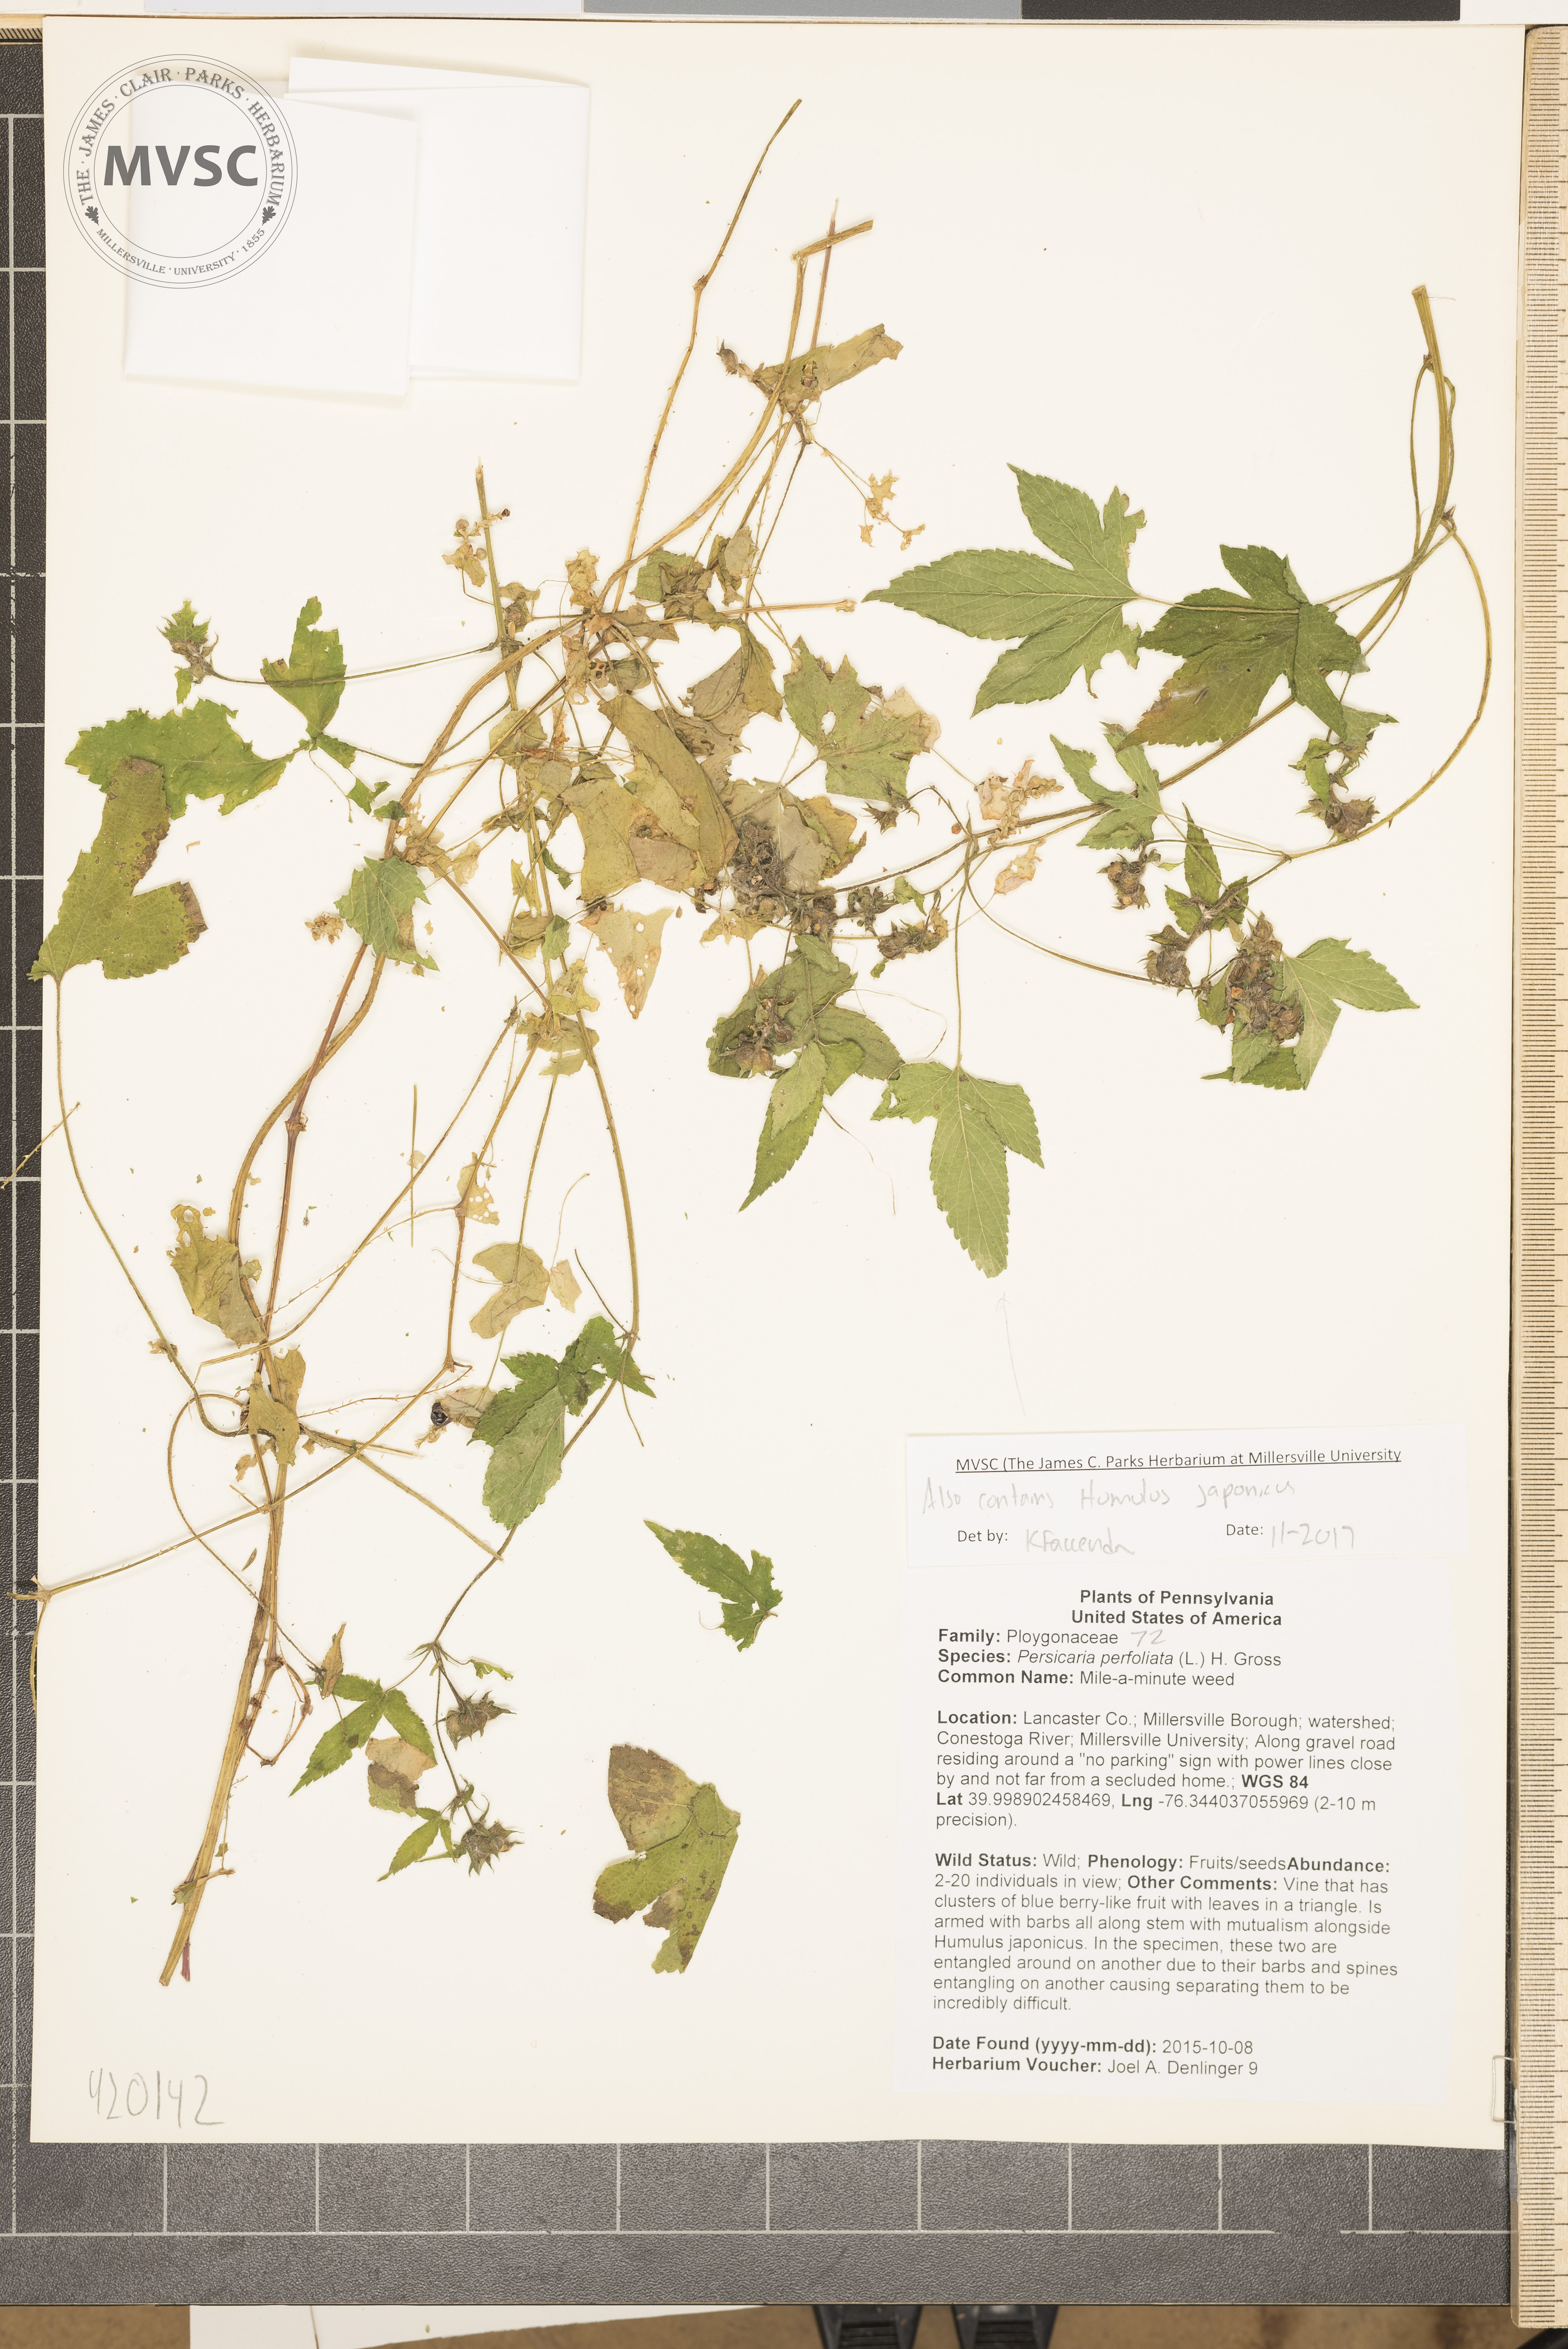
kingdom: Plantae
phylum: Tracheophyta
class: Magnoliopsida
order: Caryophyllales
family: Polygonaceae
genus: Persicaria
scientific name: Persicaria perfoliata
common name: Mile-a-minute weed
